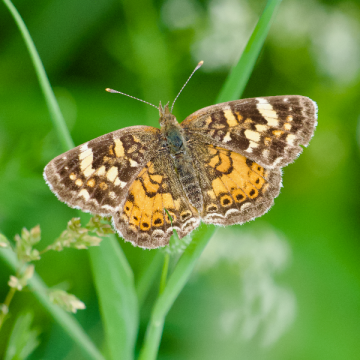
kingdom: Animalia
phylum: Arthropoda
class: Insecta
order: Lepidoptera
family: Nymphalidae
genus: Phyciodes
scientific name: Phyciodes tharos
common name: Northern Crescent
